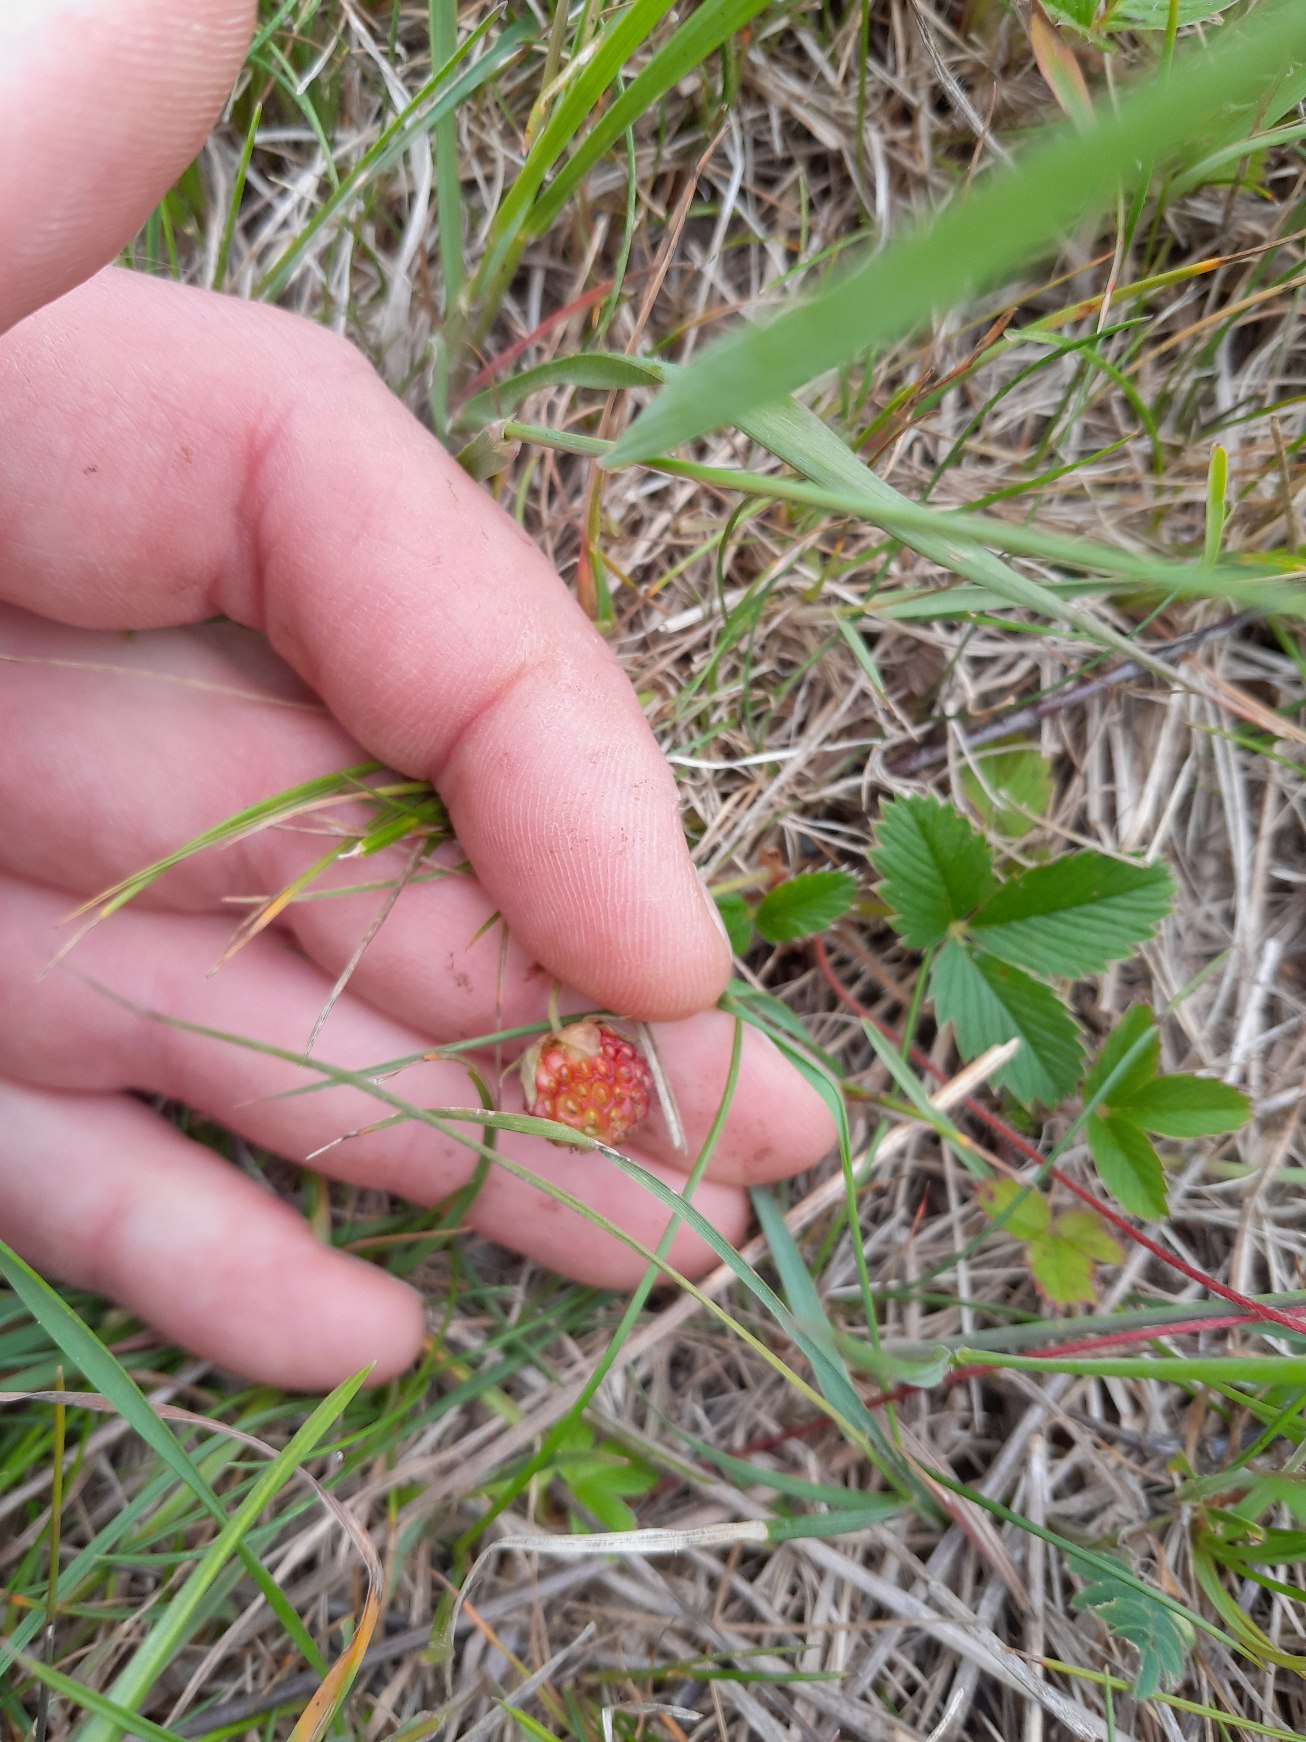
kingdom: Plantae
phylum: Tracheophyta
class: Magnoliopsida
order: Rosales
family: Rosaceae
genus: Fragaria
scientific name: Fragaria
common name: Skov-jordbær × bakke-jordbær
